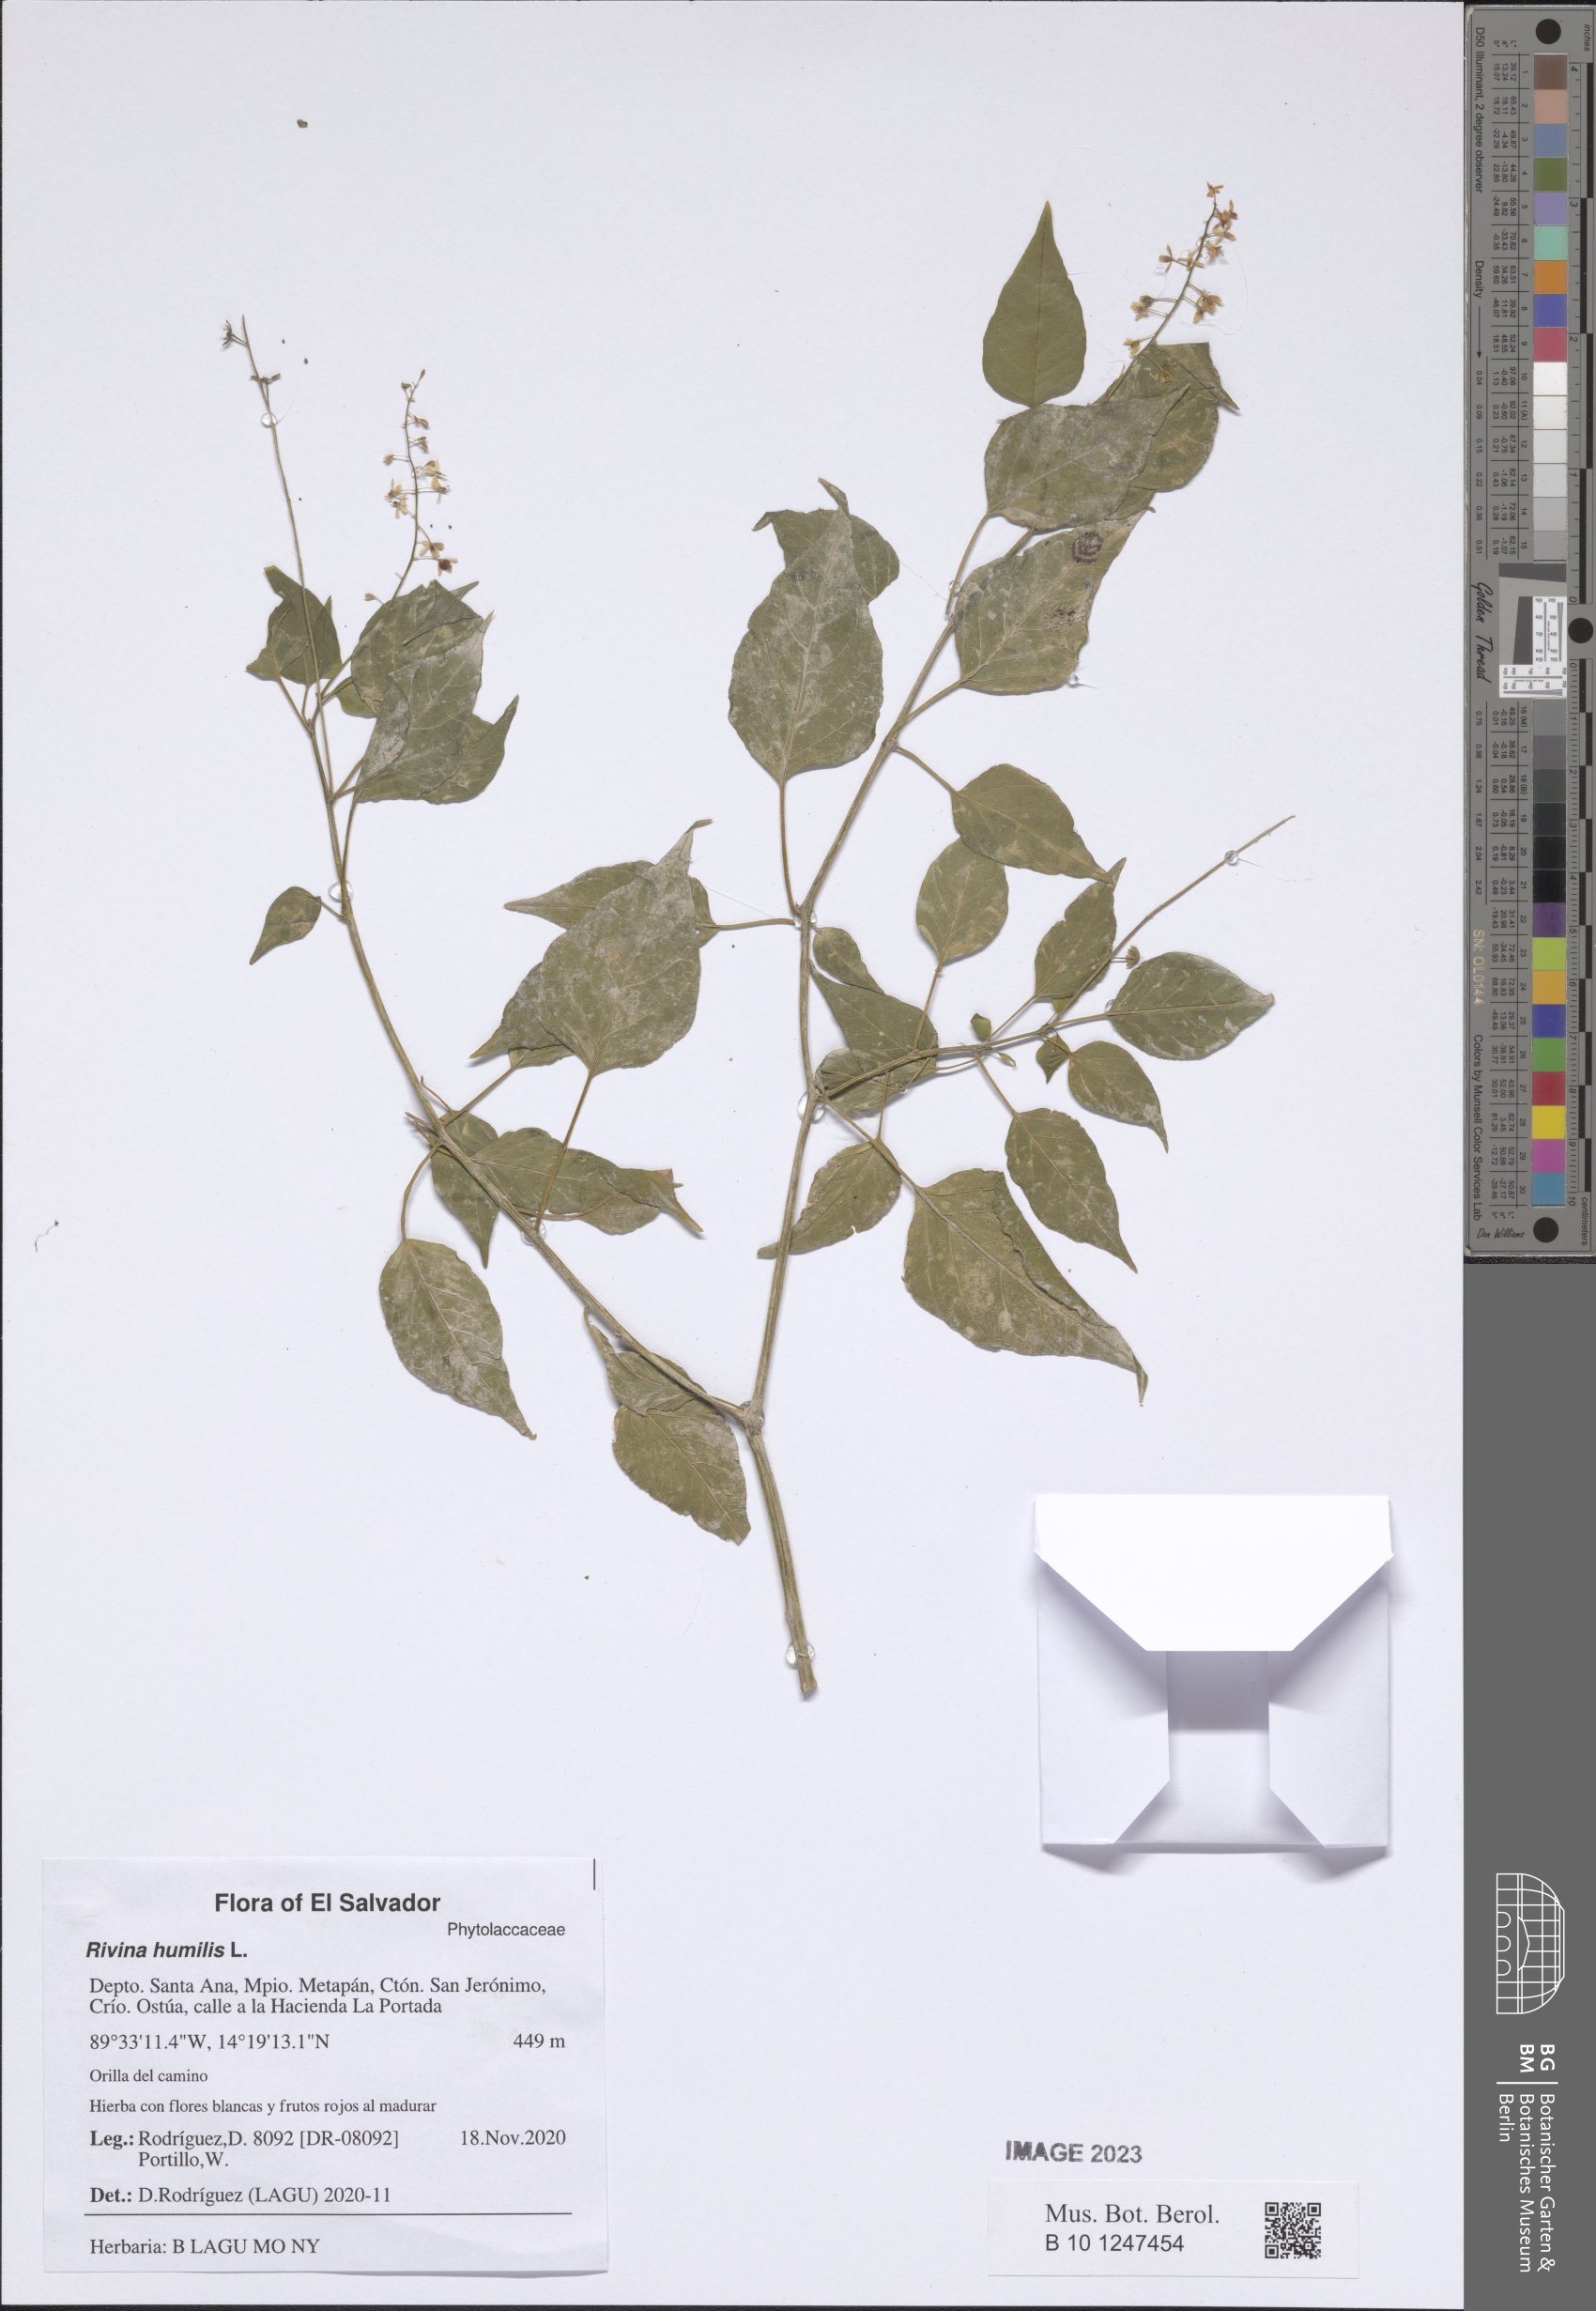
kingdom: Plantae
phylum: Tracheophyta
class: Magnoliopsida
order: Caryophyllales
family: Phytolaccaceae
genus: Rivina
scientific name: Rivina humilis
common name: Rougeplant
